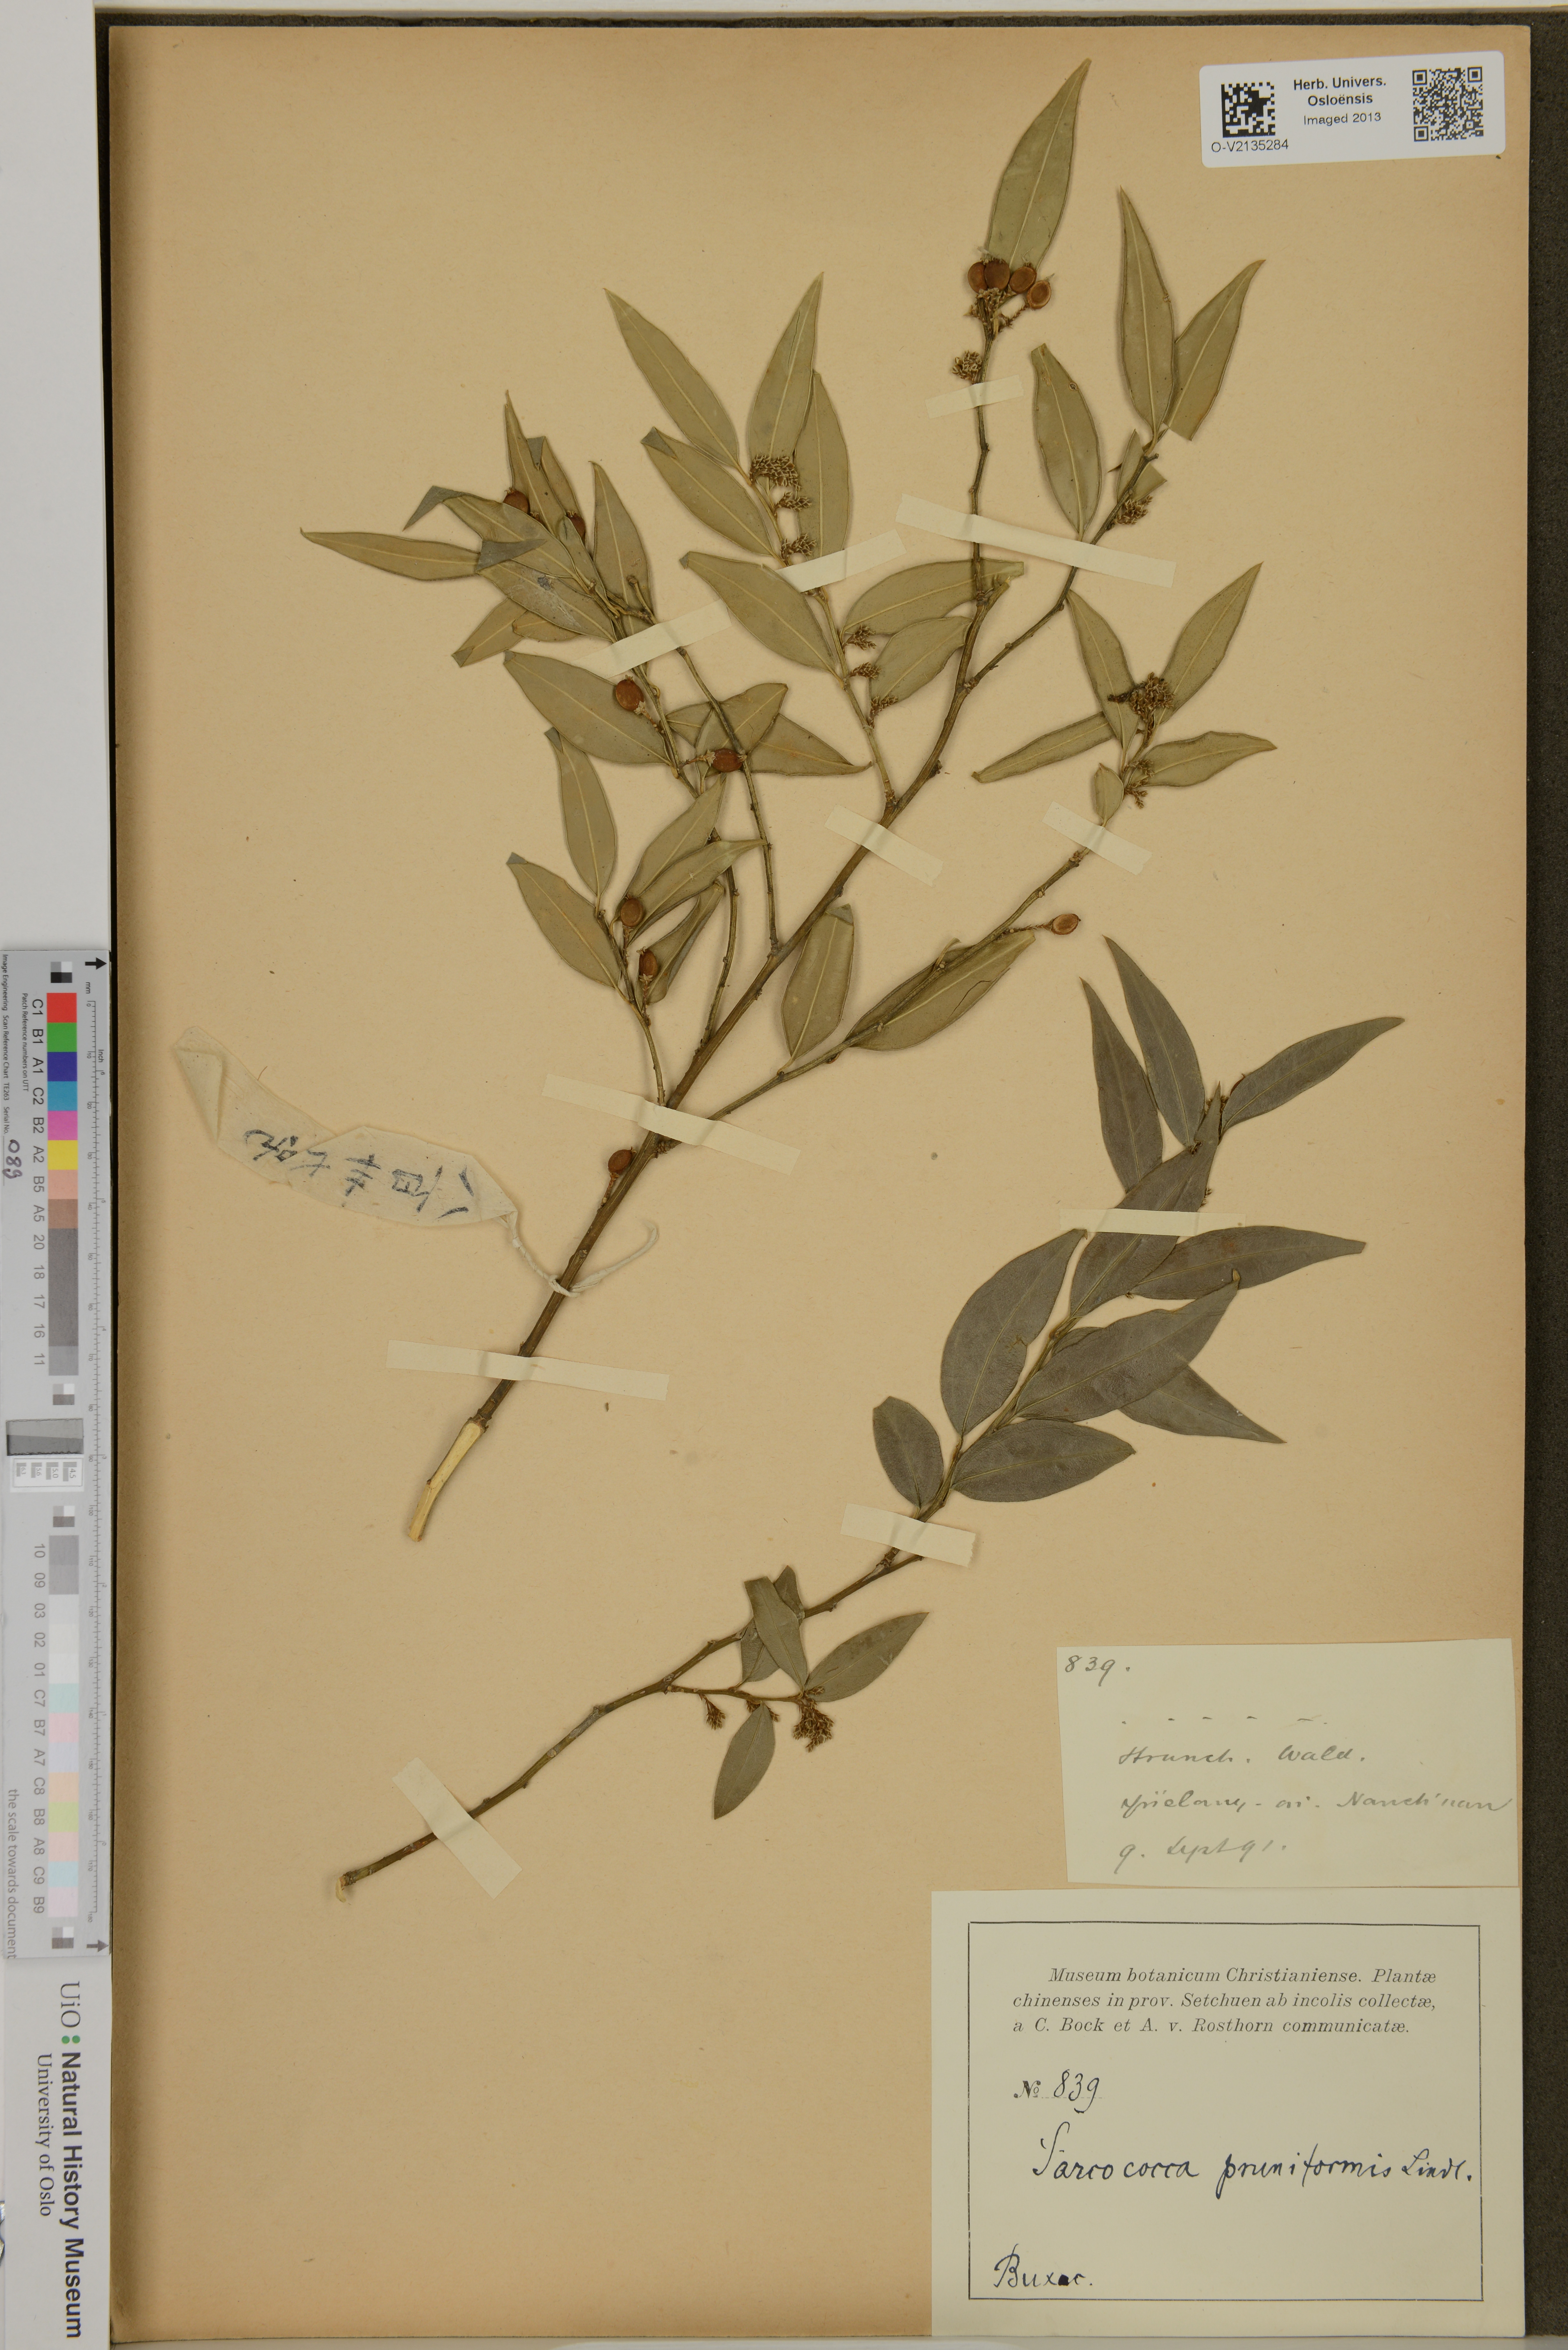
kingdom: Plantae
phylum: Tracheophyta
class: Magnoliopsida
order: Buxales
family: Buxaceae
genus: Sarcococca
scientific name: Sarcococca coriacea
